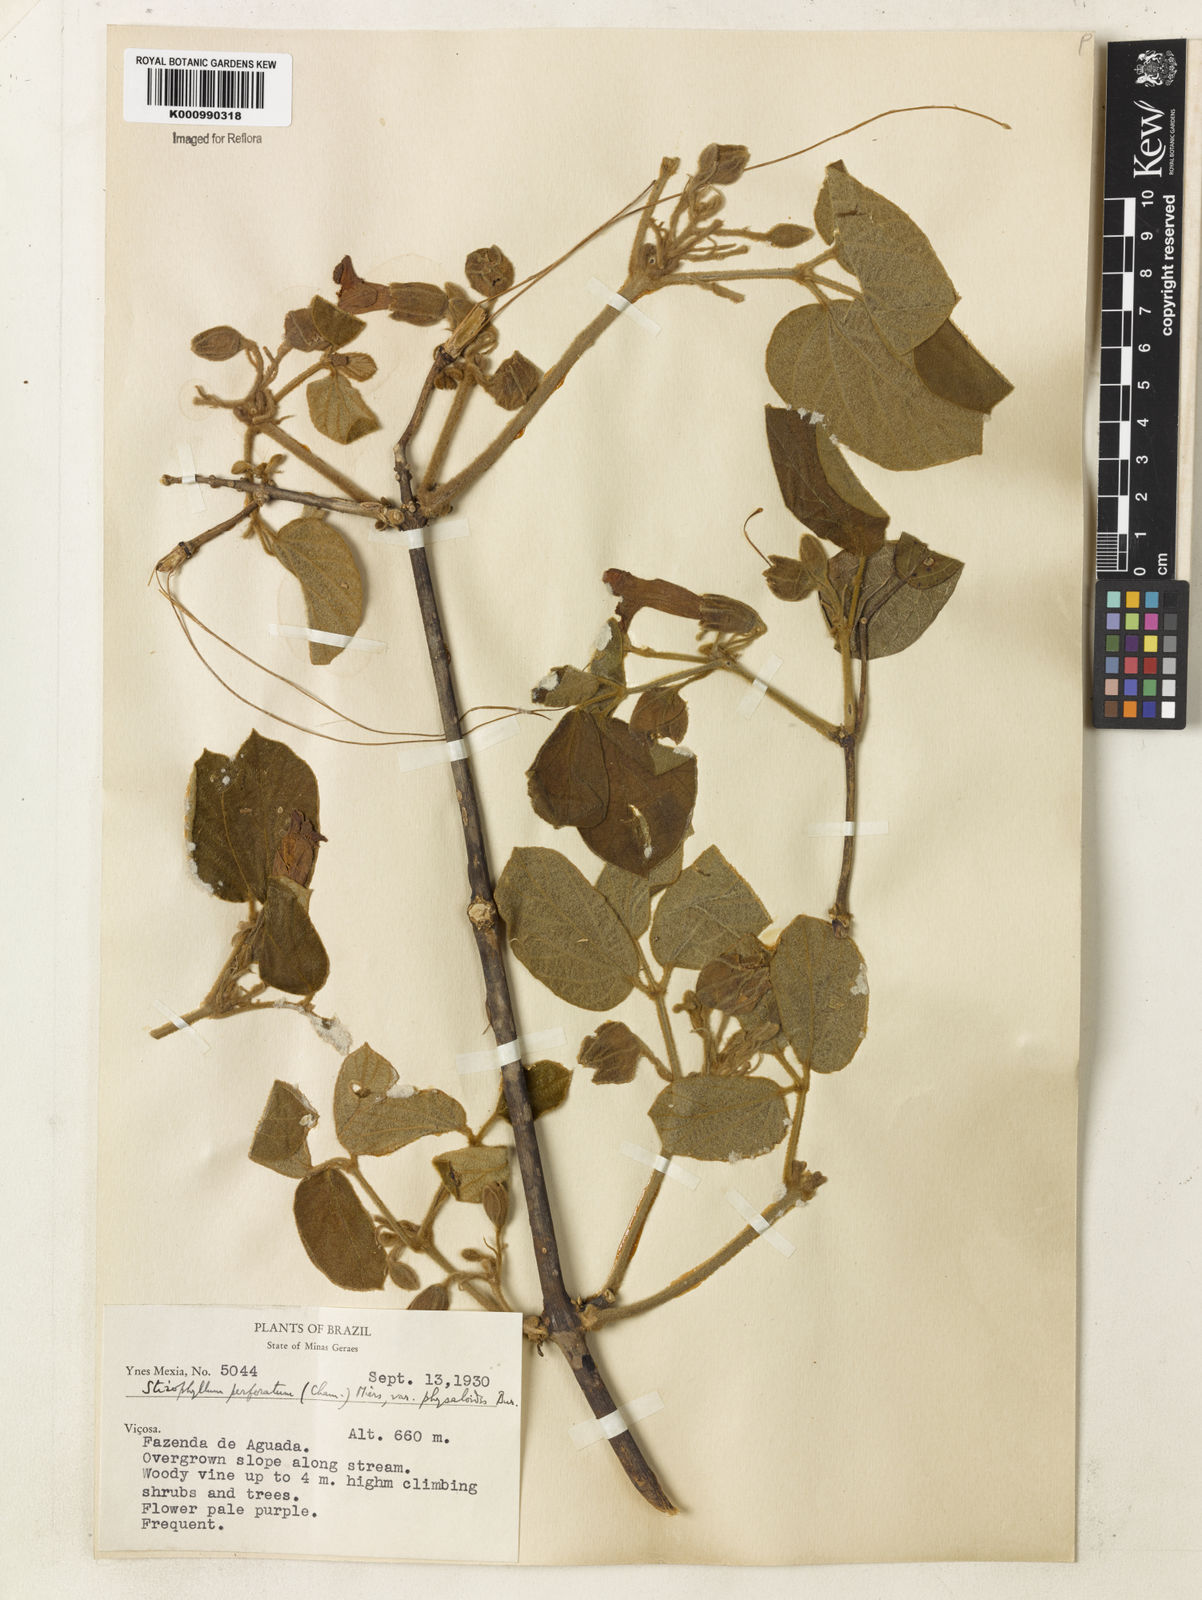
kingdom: Plantae
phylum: Tracheophyta
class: Magnoliopsida
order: Lamiales
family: Bignoniaceae
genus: Stizophyllum
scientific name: Stizophyllum perforatum
